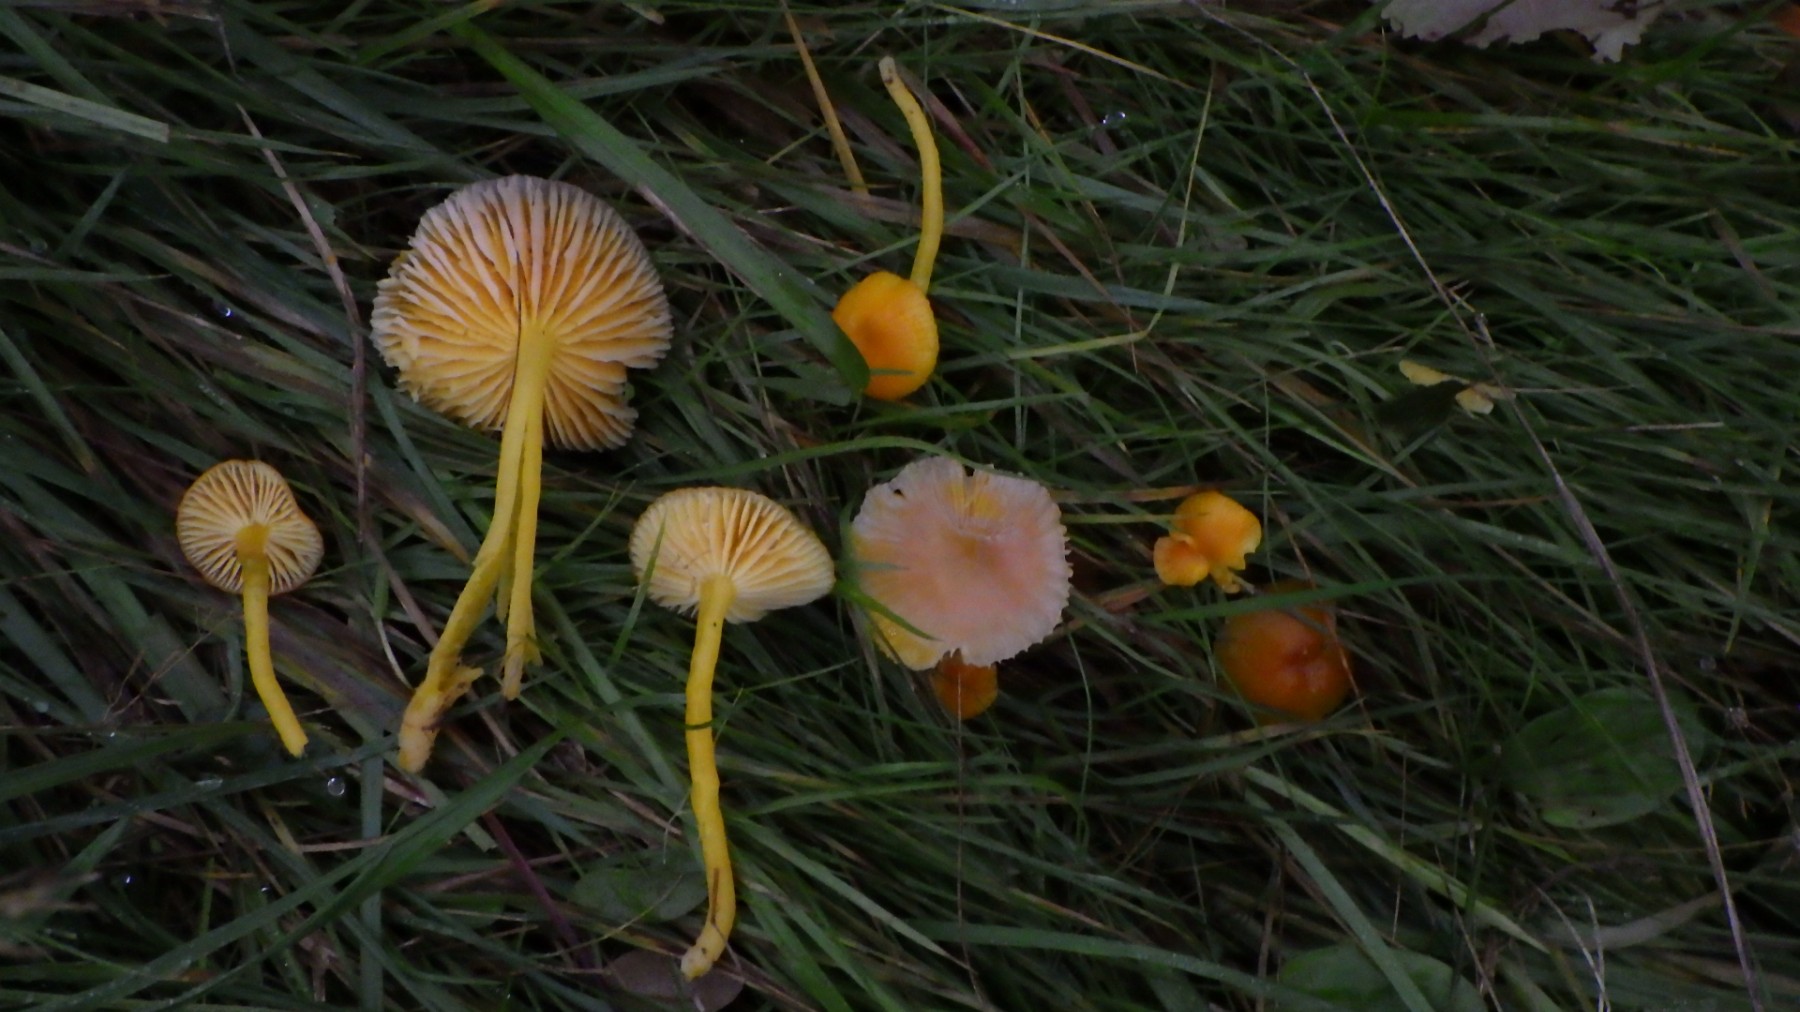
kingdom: Fungi
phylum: Basidiomycota
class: Agaricomycetes
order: Agaricales
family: Hygrophoraceae
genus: Hygrocybe
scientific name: Hygrocybe ceracea
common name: voksgul vokshat
